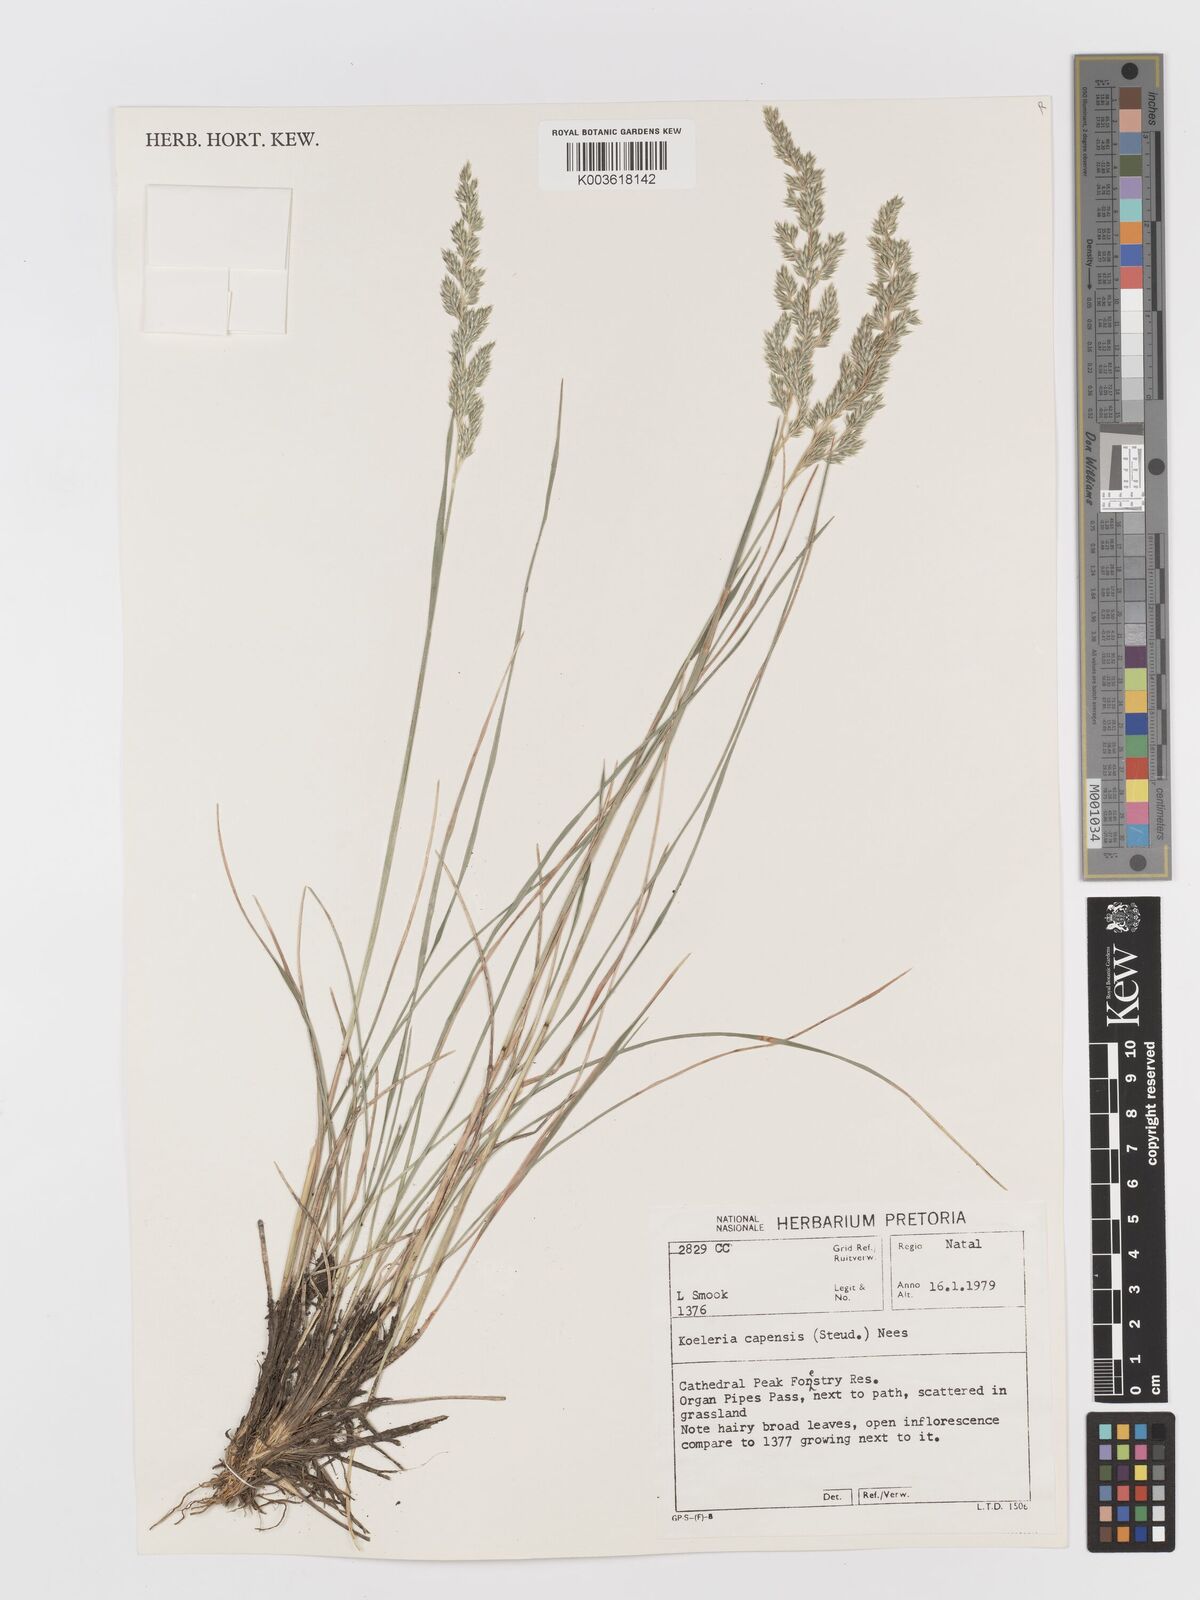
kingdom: Plantae
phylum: Tracheophyta
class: Liliopsida
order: Poales
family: Poaceae
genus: Koeleria
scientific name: Koeleria capensis
